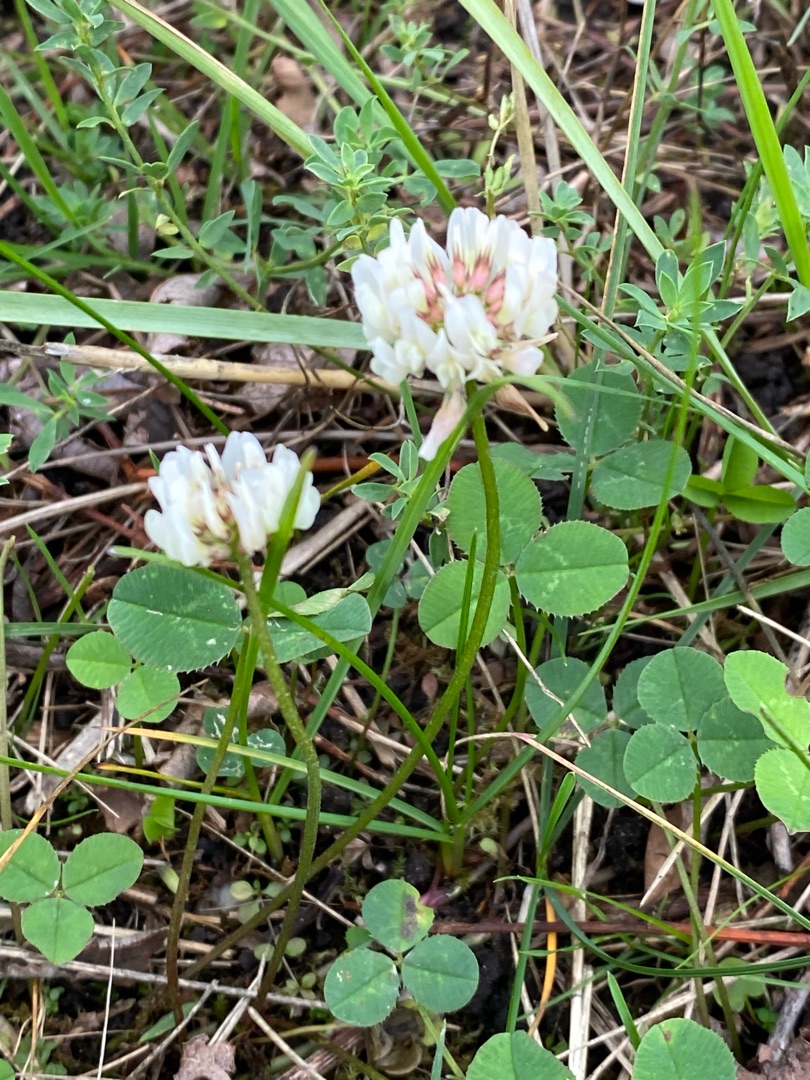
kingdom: Plantae
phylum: Tracheophyta
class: Magnoliopsida
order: Fabales
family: Fabaceae
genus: Trifolium
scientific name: Trifolium repens
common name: Hvid-kløver
